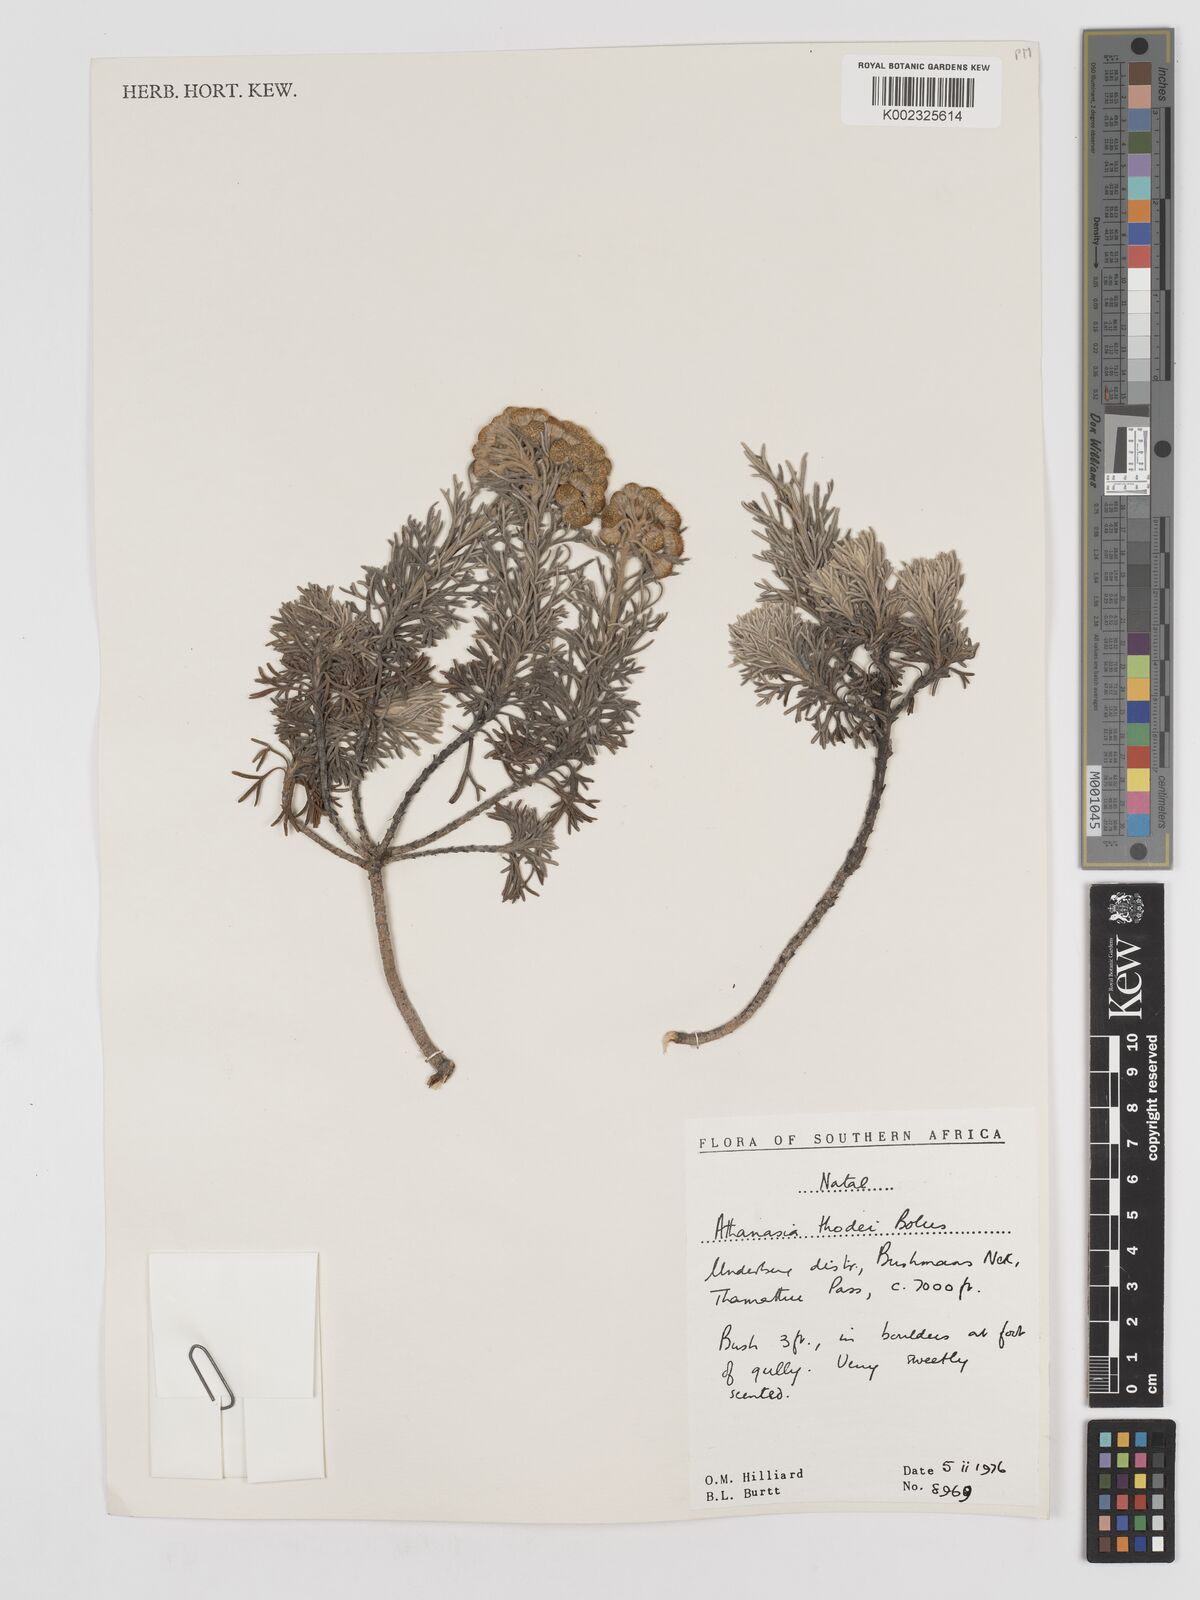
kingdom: Plantae
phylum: Tracheophyta
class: Magnoliopsida
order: Asterales
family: Asteraceae
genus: Inulanthera
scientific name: Inulanthera thodei
